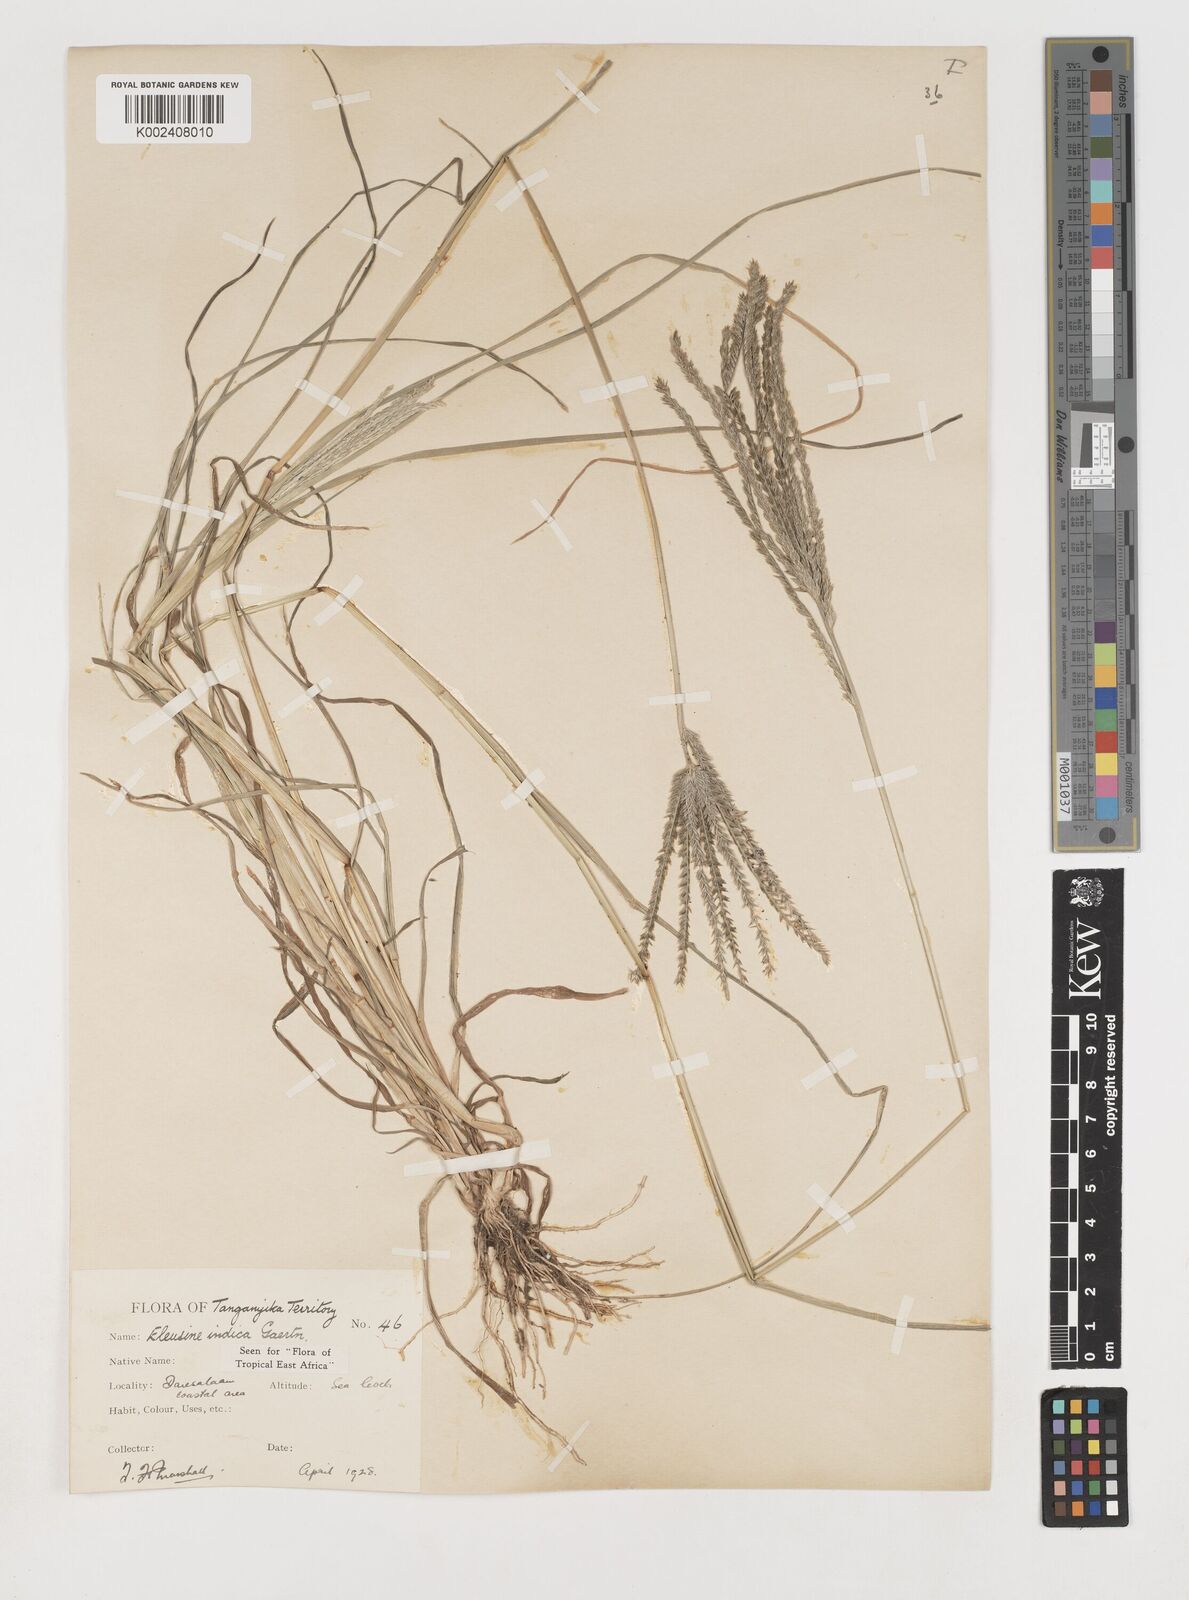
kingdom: Plantae
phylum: Tracheophyta
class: Liliopsida
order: Poales
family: Poaceae
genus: Eleusine
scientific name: Eleusine indica
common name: Yard-grass
